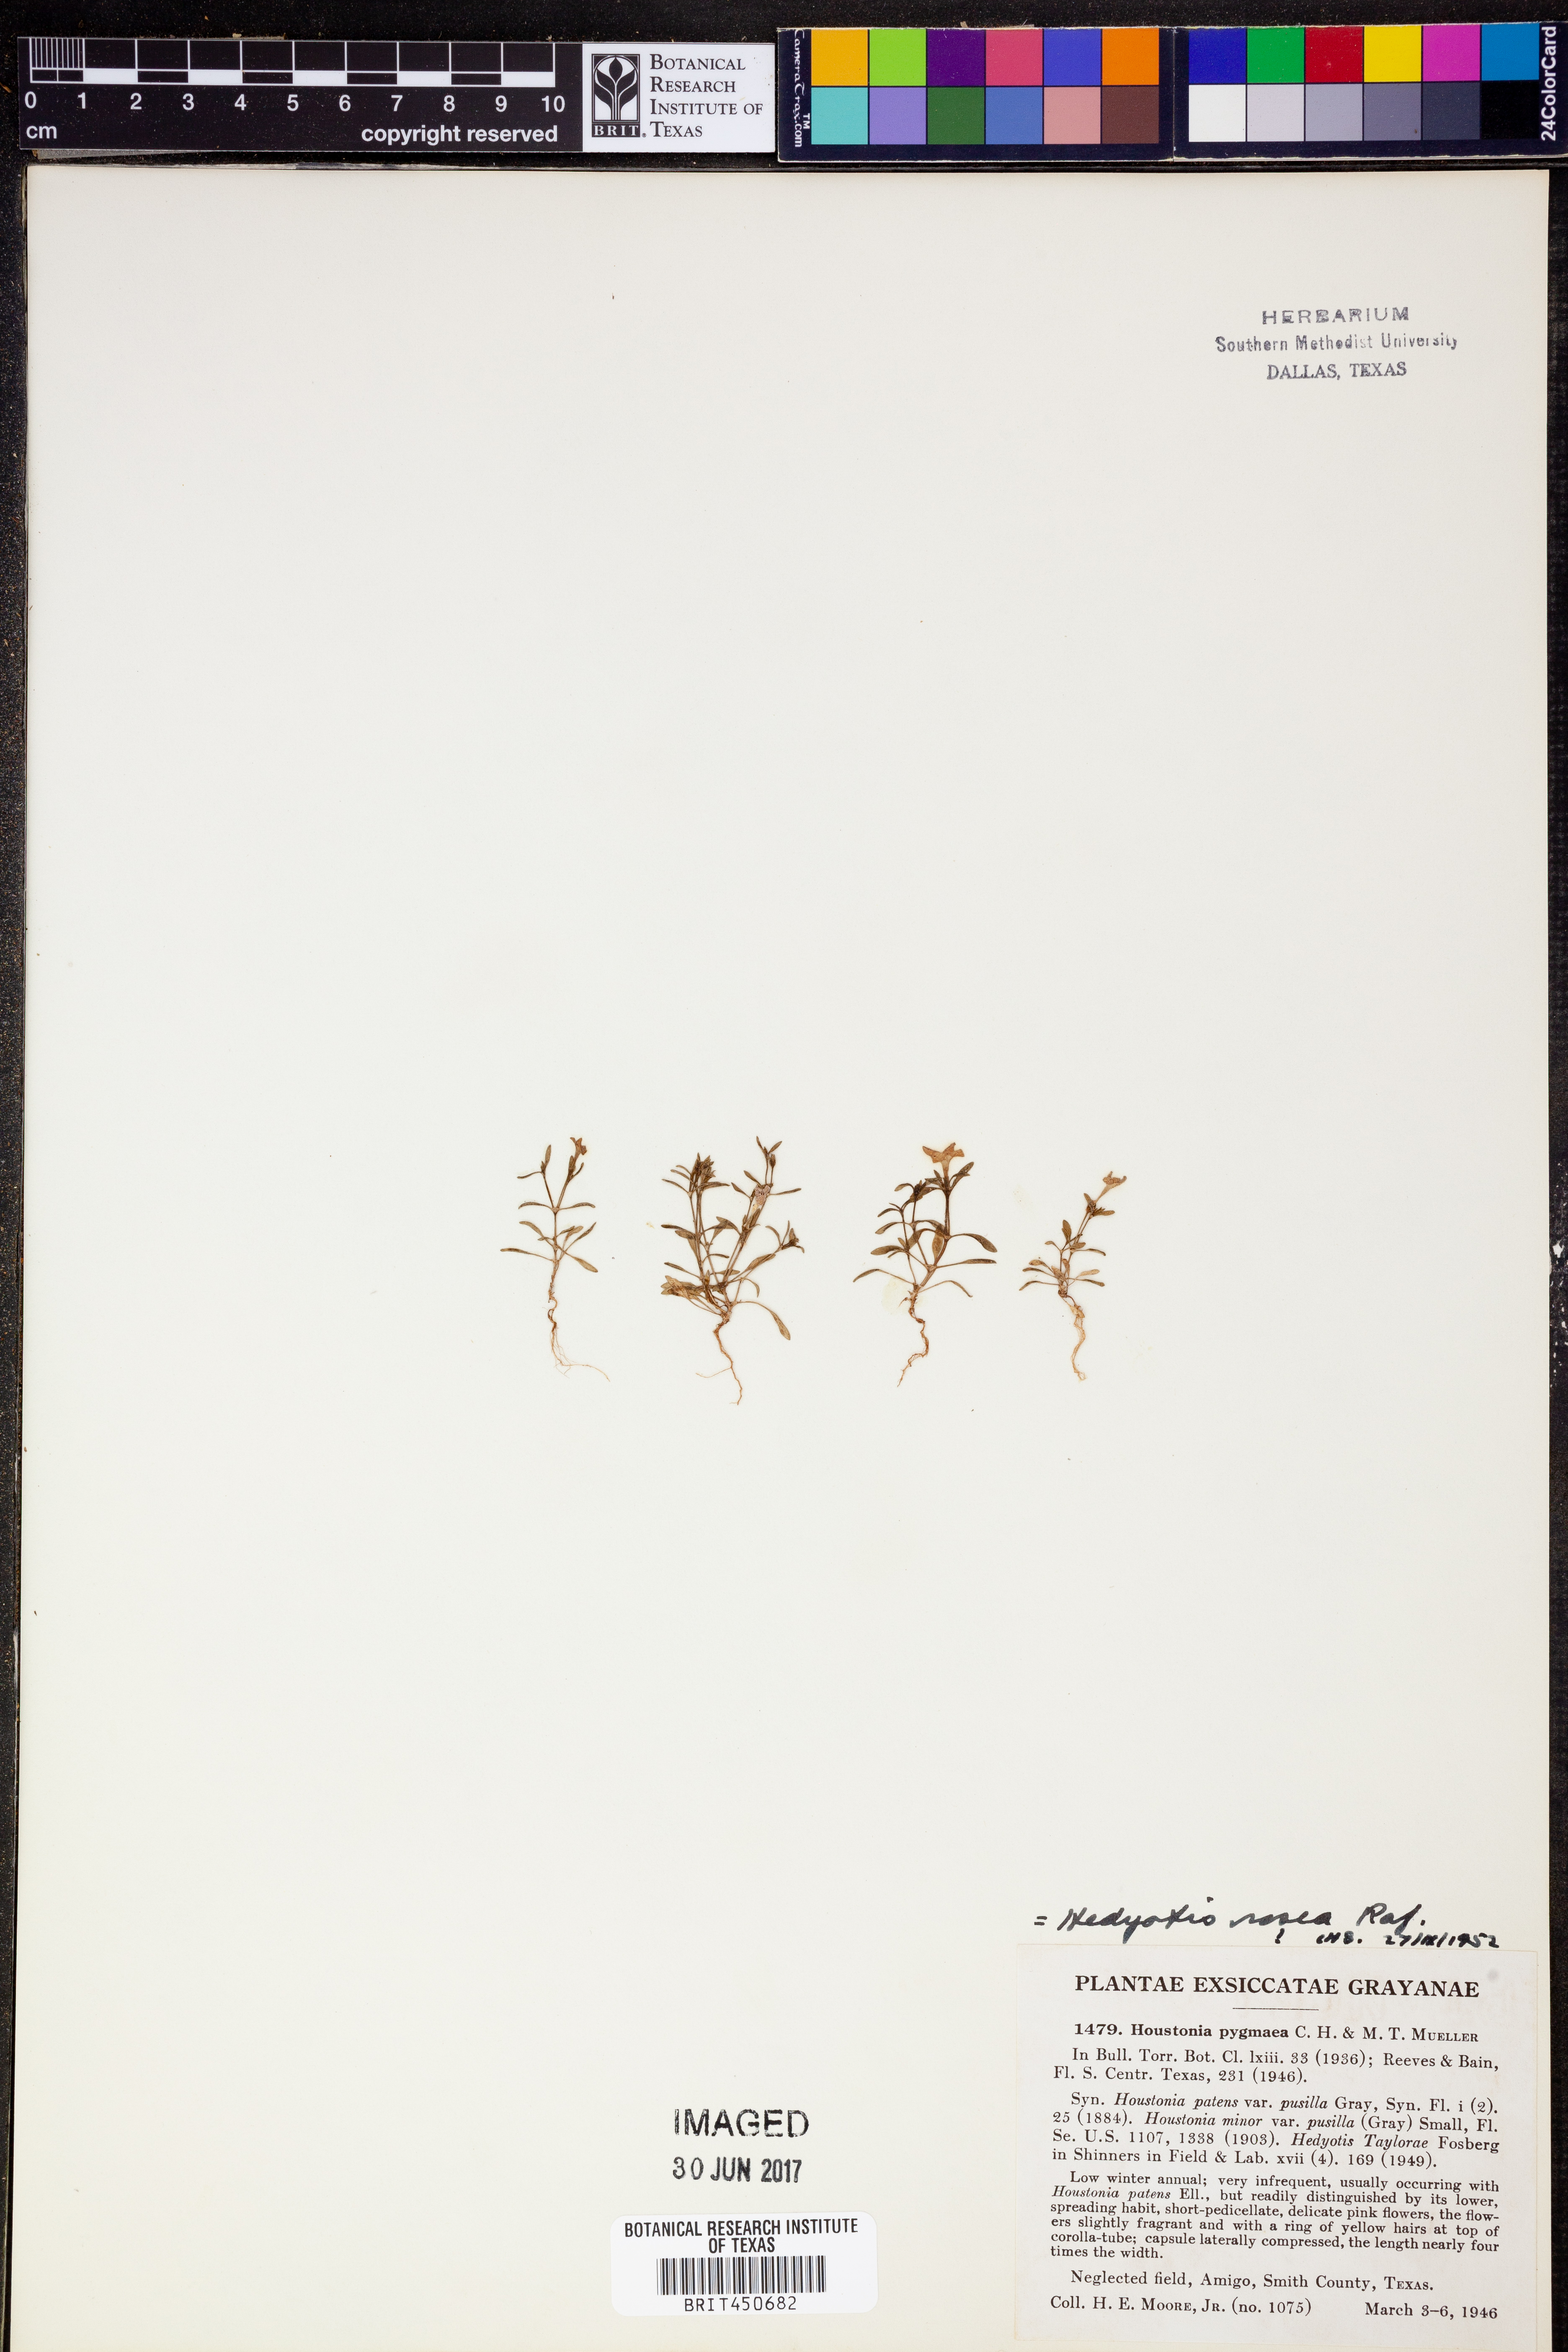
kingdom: Plantae
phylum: Tracheophyta
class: Magnoliopsida
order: Gentianales
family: Rubiaceae
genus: Houstonia
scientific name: Houstonia rosea
